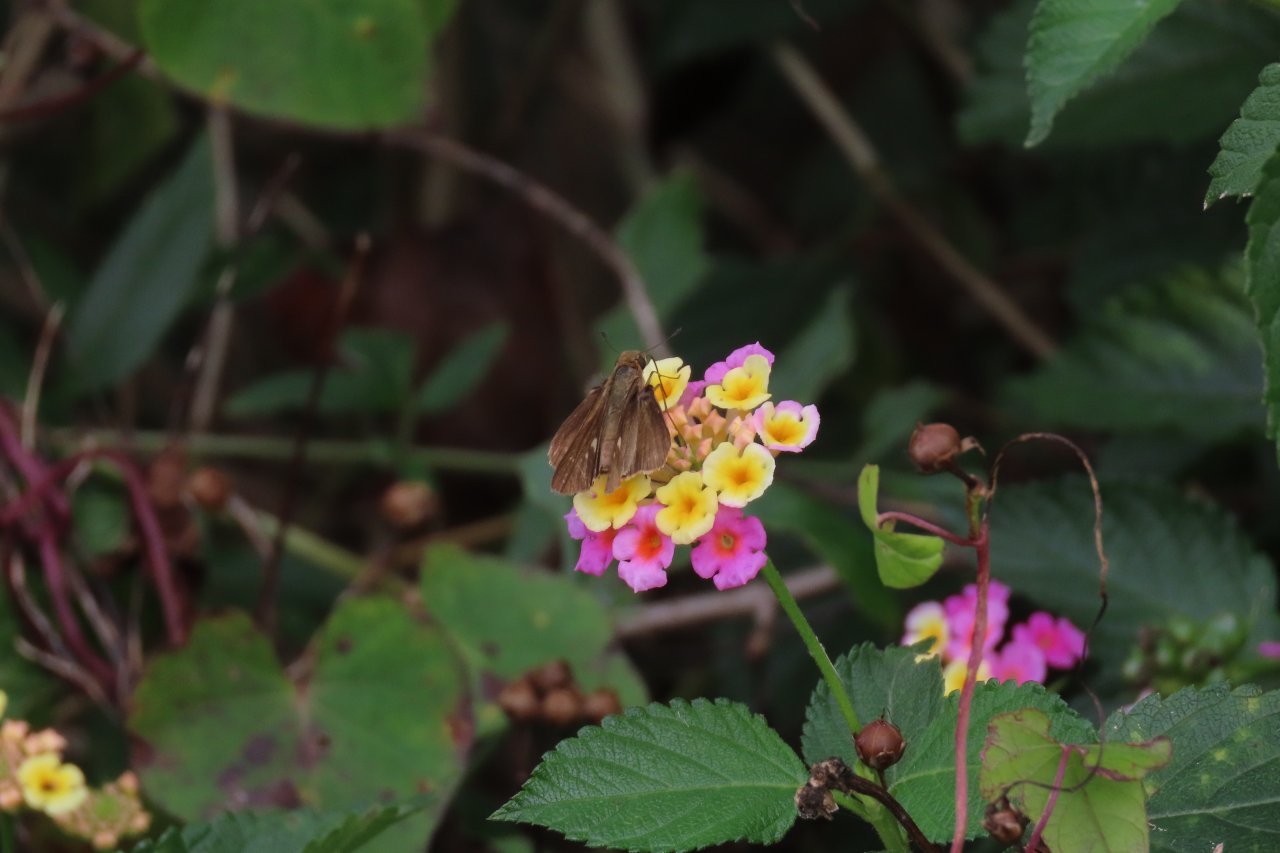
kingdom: Animalia
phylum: Arthropoda
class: Insecta
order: Lepidoptera
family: Hesperiidae
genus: Panoquina
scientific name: Panoquina ocola
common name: Ocola Skipper
